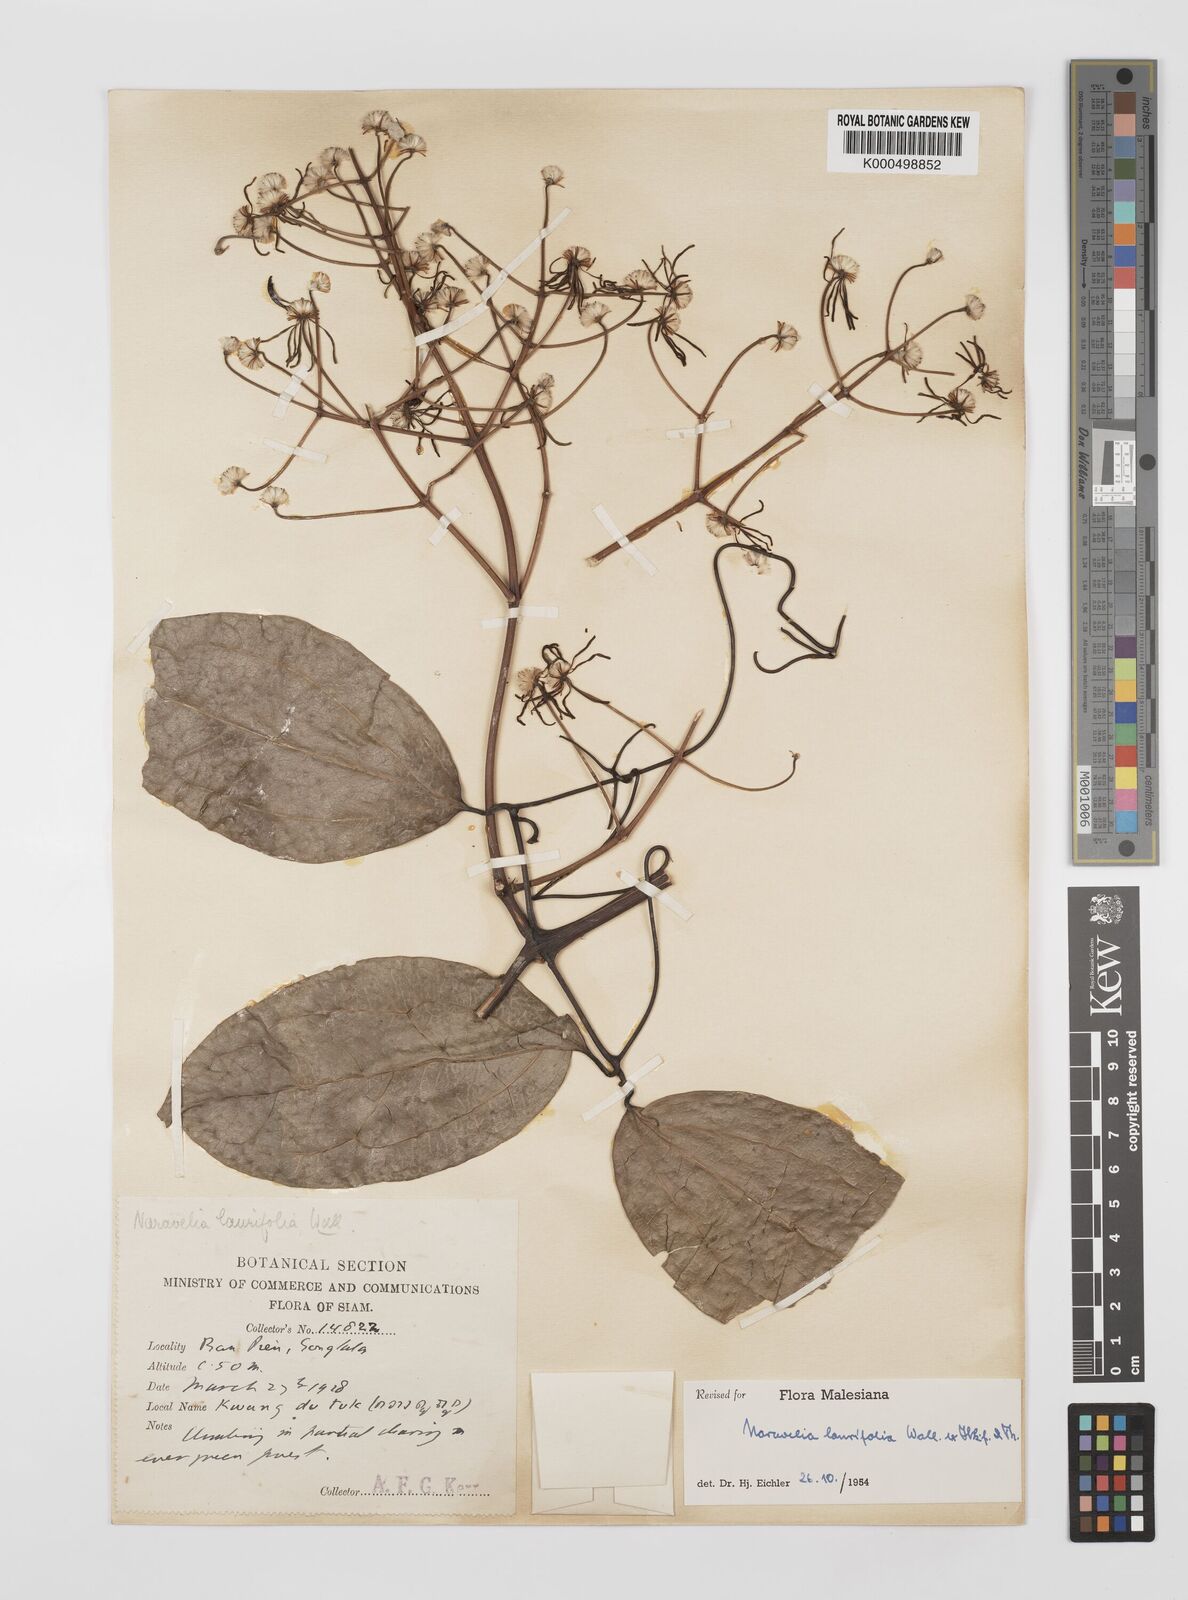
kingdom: Plantae
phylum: Tracheophyta
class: Magnoliopsida
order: Ranunculales
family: Ranunculaceae
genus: Clematis
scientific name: Clematis horripilata
